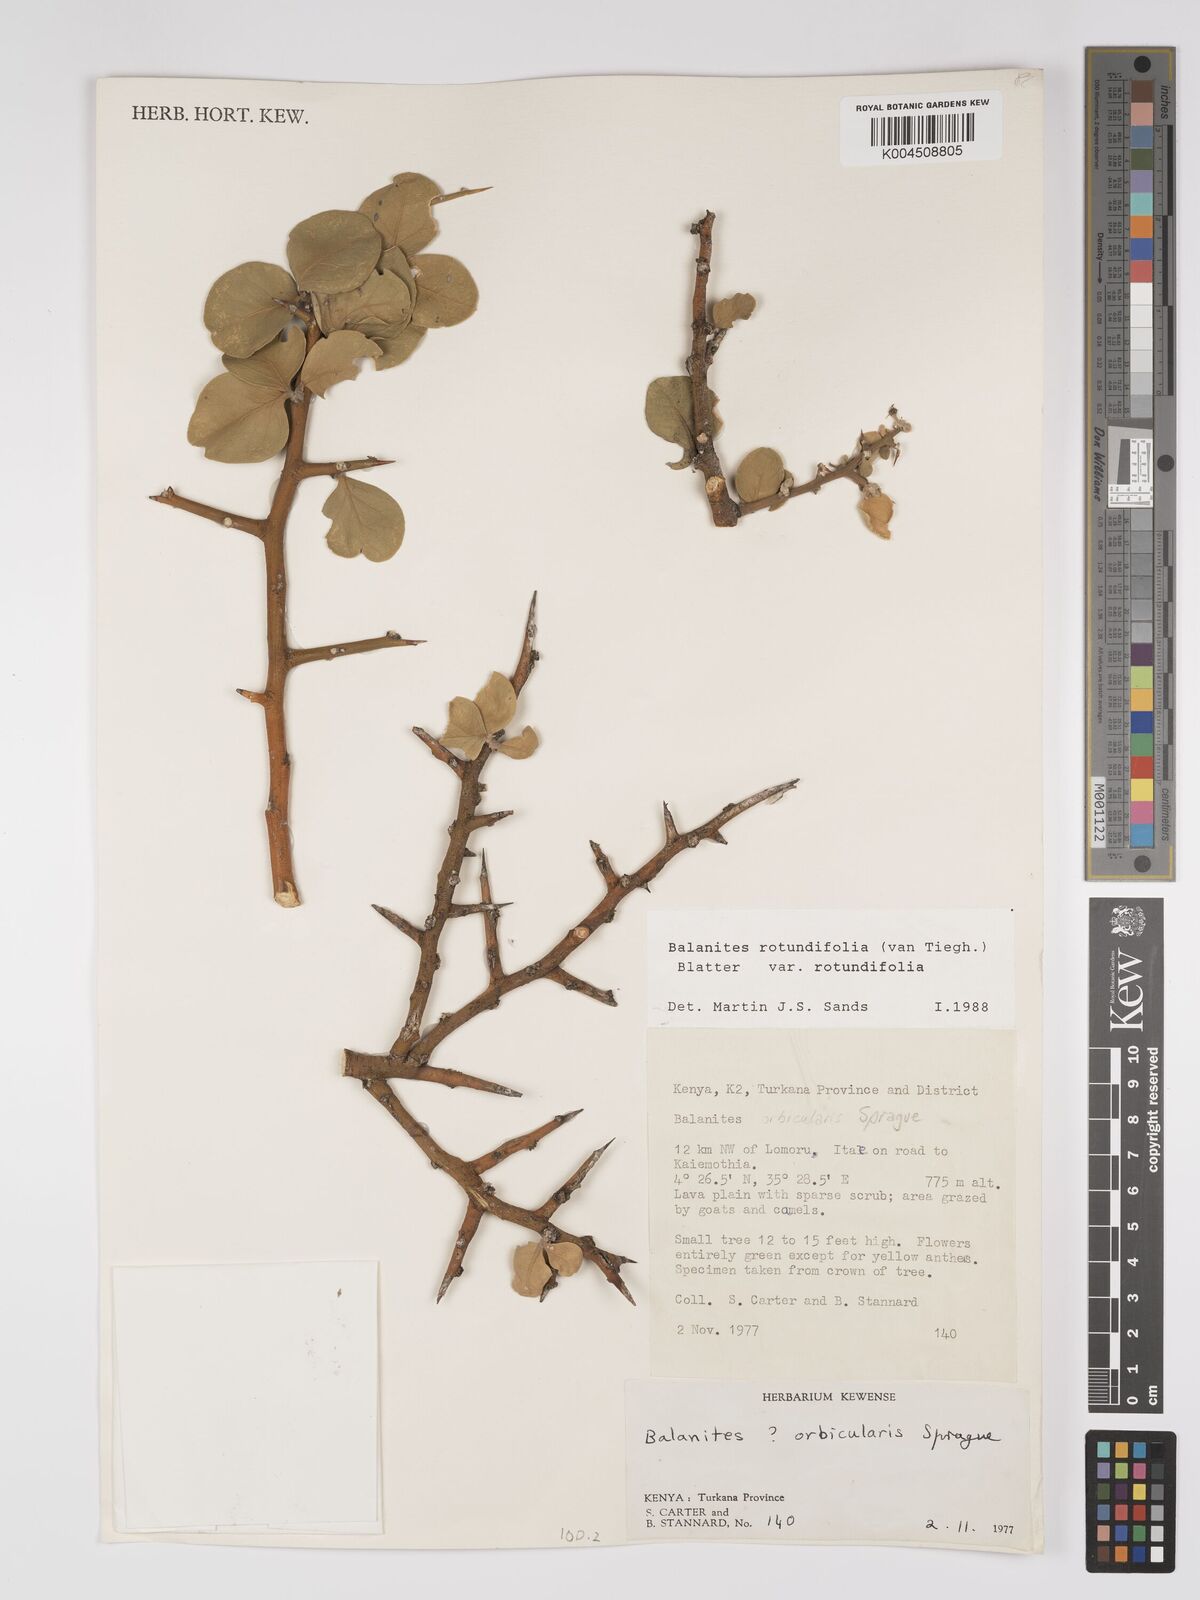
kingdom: Plantae
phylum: Tracheophyta
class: Magnoliopsida
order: Zygophyllales
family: Zygophyllaceae
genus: Balanites
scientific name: Balanites rotundifolia
